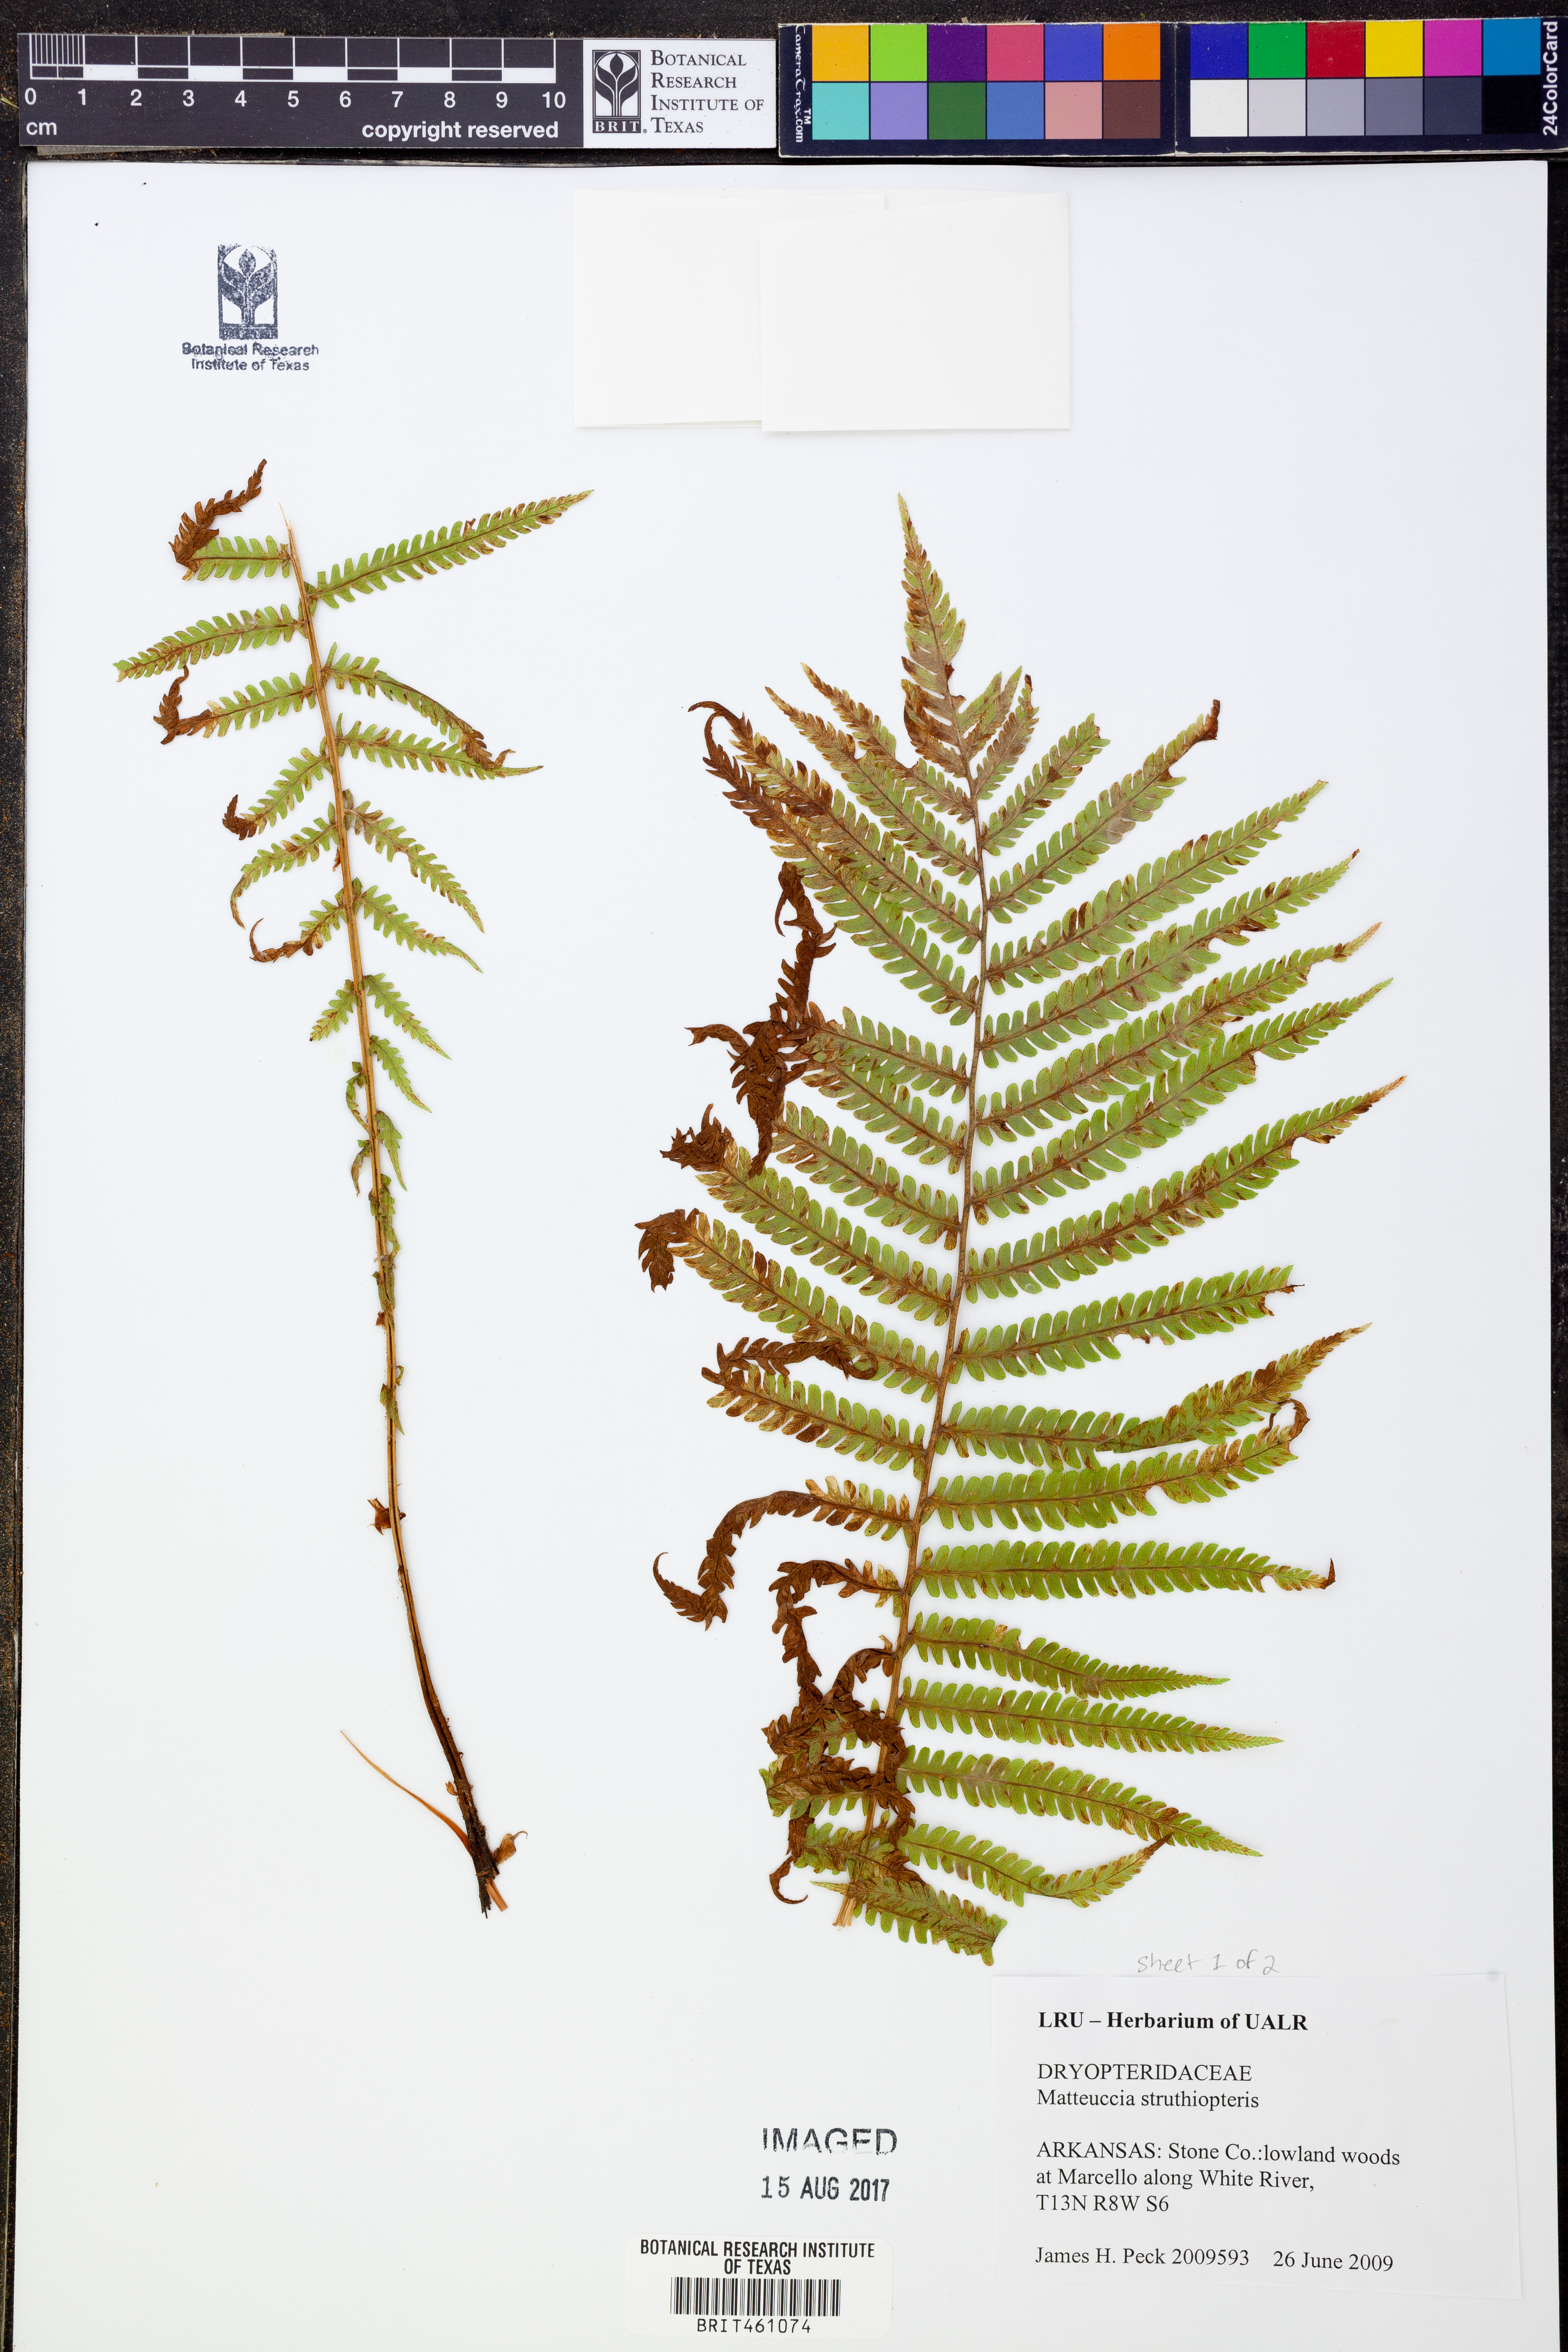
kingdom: Plantae
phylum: Tracheophyta
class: Polypodiopsida
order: Polypodiales
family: Onocleaceae
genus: Matteuccia
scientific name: Matteuccia struthiopteris
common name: Ostrich fern
